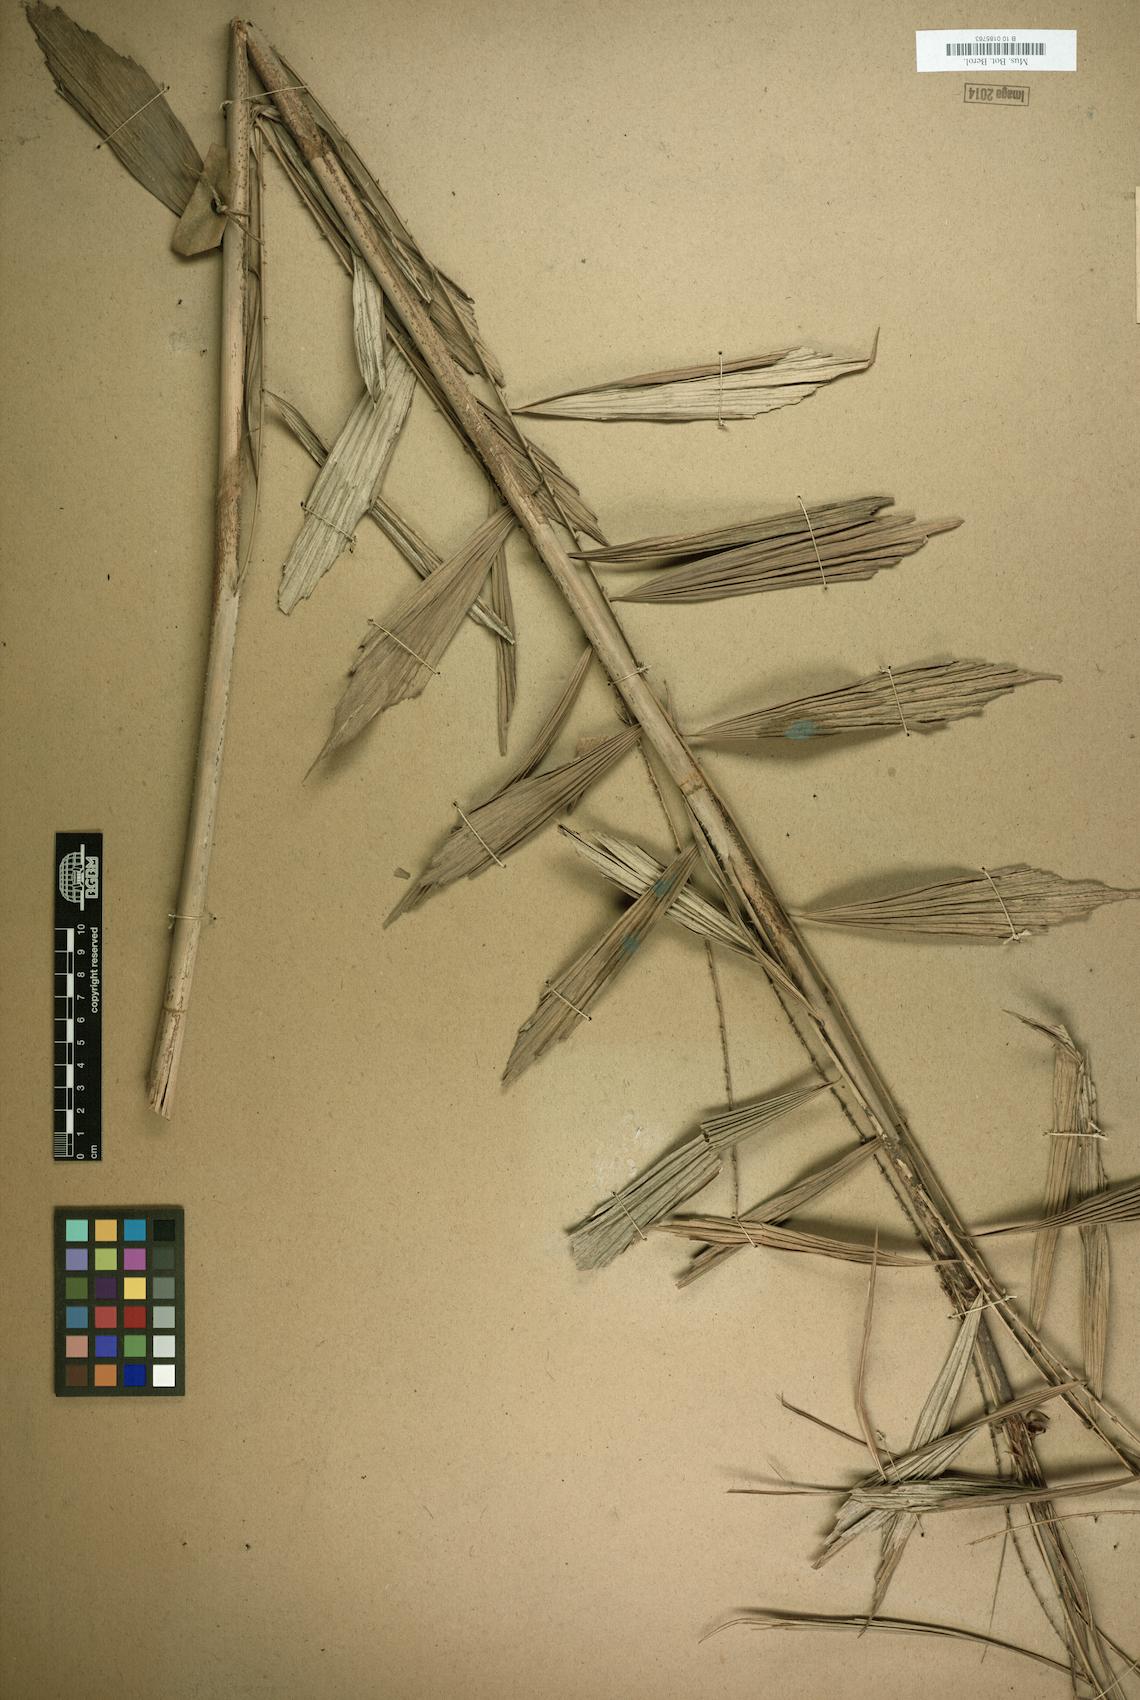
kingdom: Plantae
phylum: Tracheophyta
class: Liliopsida
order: Arecales
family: Arecaceae
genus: Korthalsia
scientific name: Korthalsia debilis
